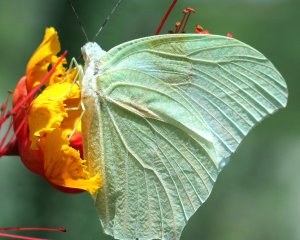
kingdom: Animalia
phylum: Arthropoda
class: Insecta
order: Lepidoptera
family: Pieridae
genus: Anteos
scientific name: Anteos clorinde
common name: White Angled-Sulphur
